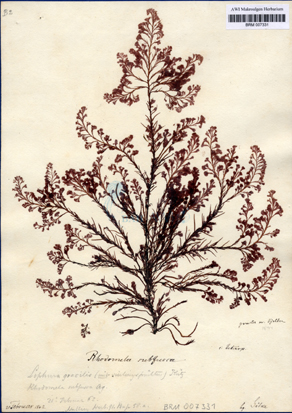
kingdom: Plantae
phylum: Rhodophyta
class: Florideophyceae
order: Ceramiales
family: Rhodomelaceae
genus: Rhodomela
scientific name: Rhodomela confervoides
